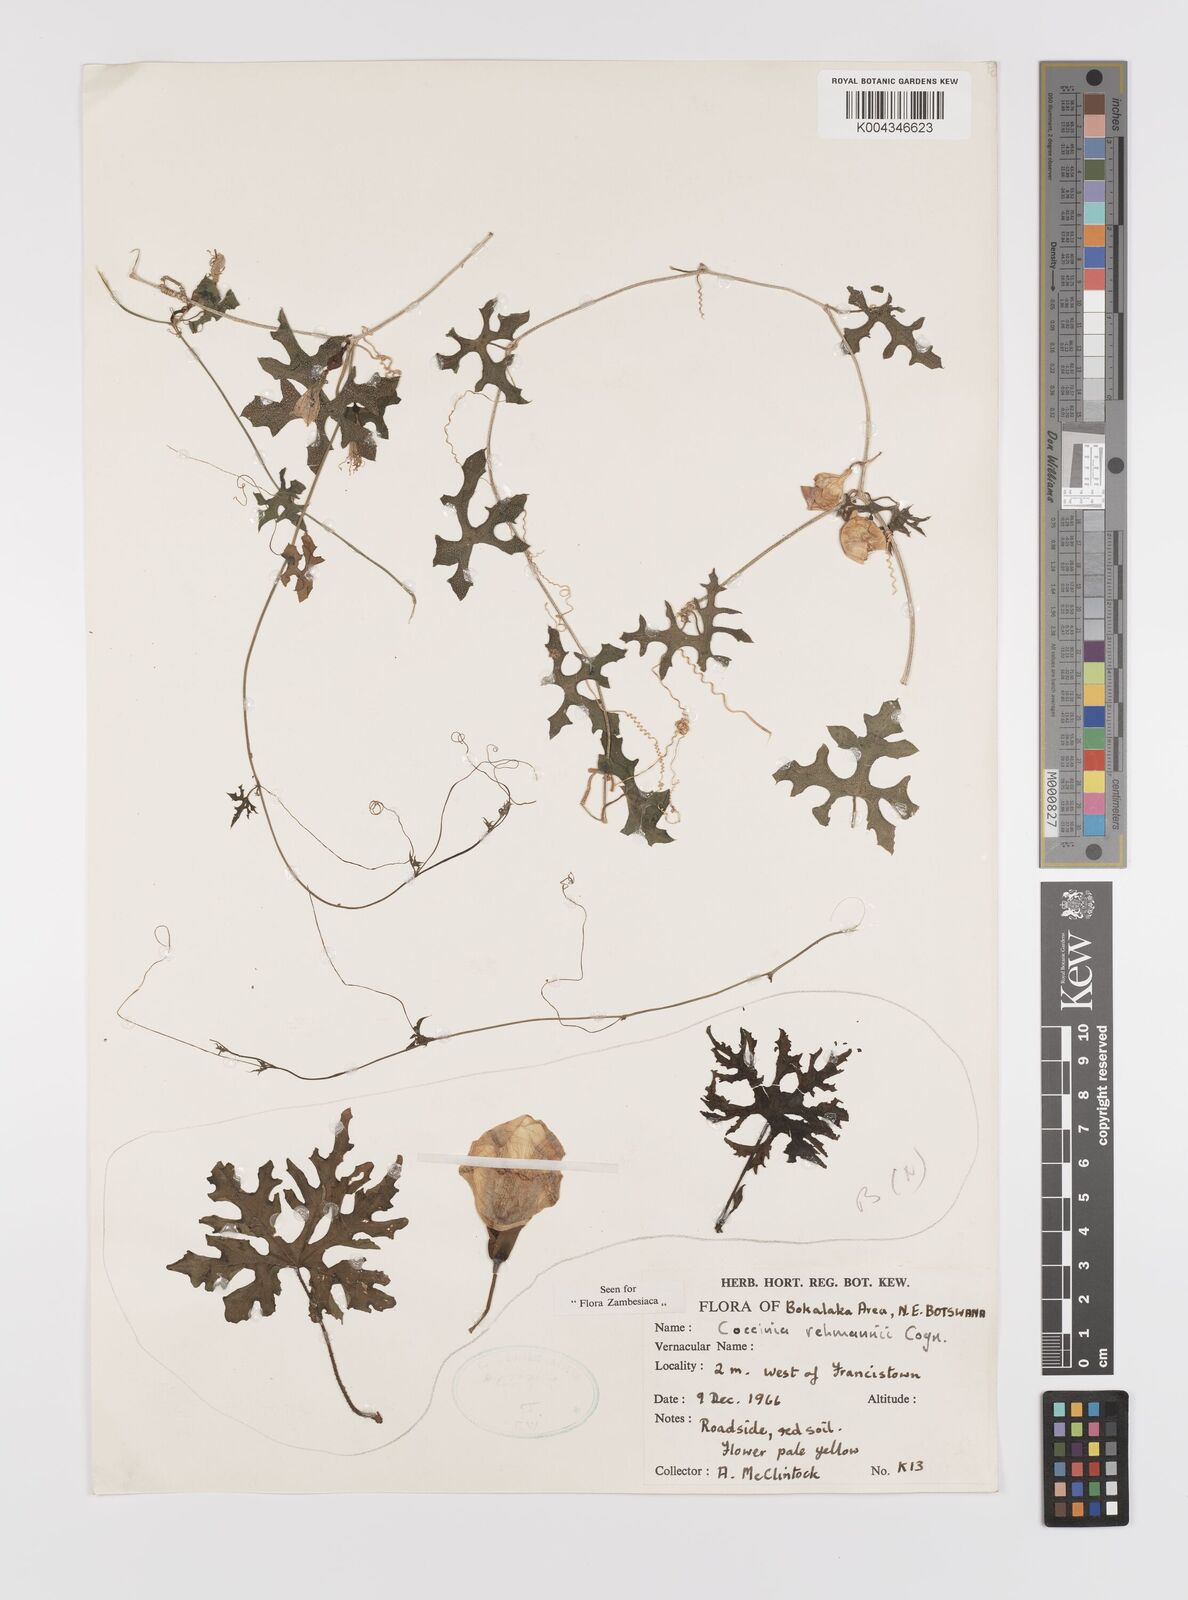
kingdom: Plantae
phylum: Tracheophyta
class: Magnoliopsida
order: Cucurbitales
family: Cucurbitaceae
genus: Coccinia
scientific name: Coccinia rehmannii
